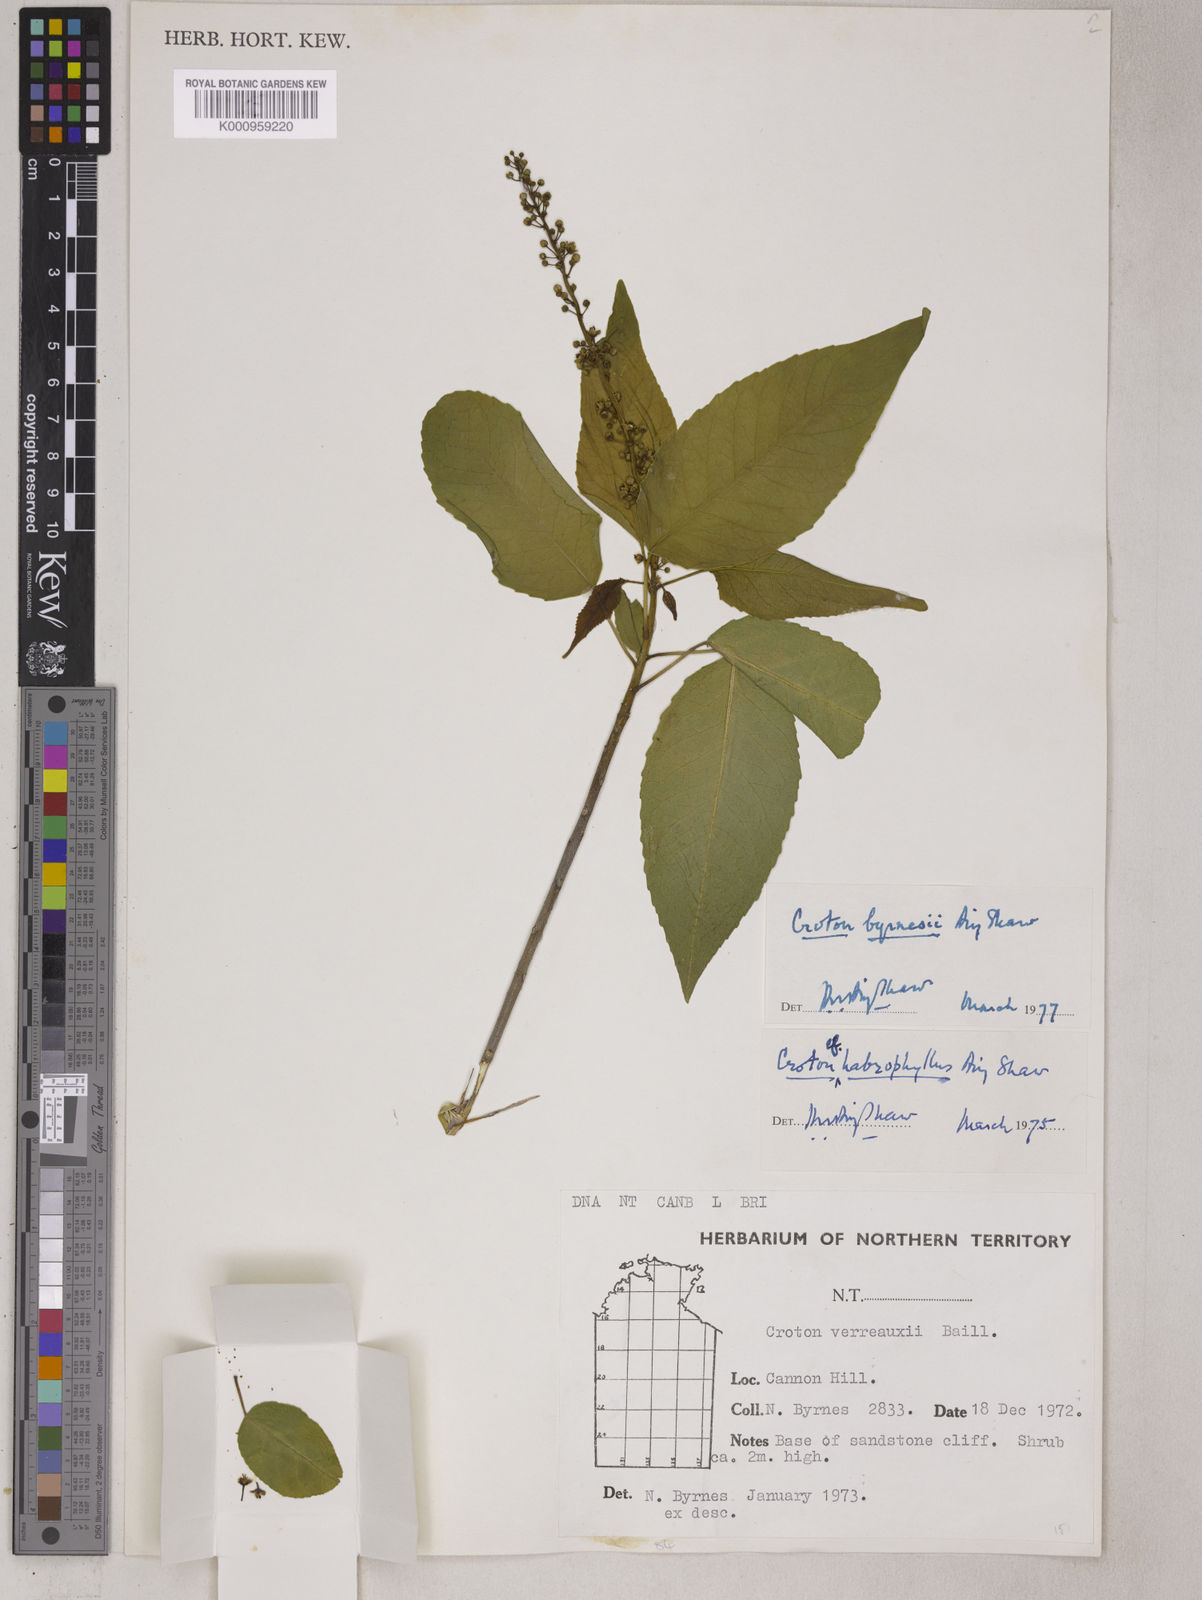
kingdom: Plantae
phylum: Tracheophyta
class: Magnoliopsida
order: Malpighiales
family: Euphorbiaceae
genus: Croton
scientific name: Croton byrnesii
